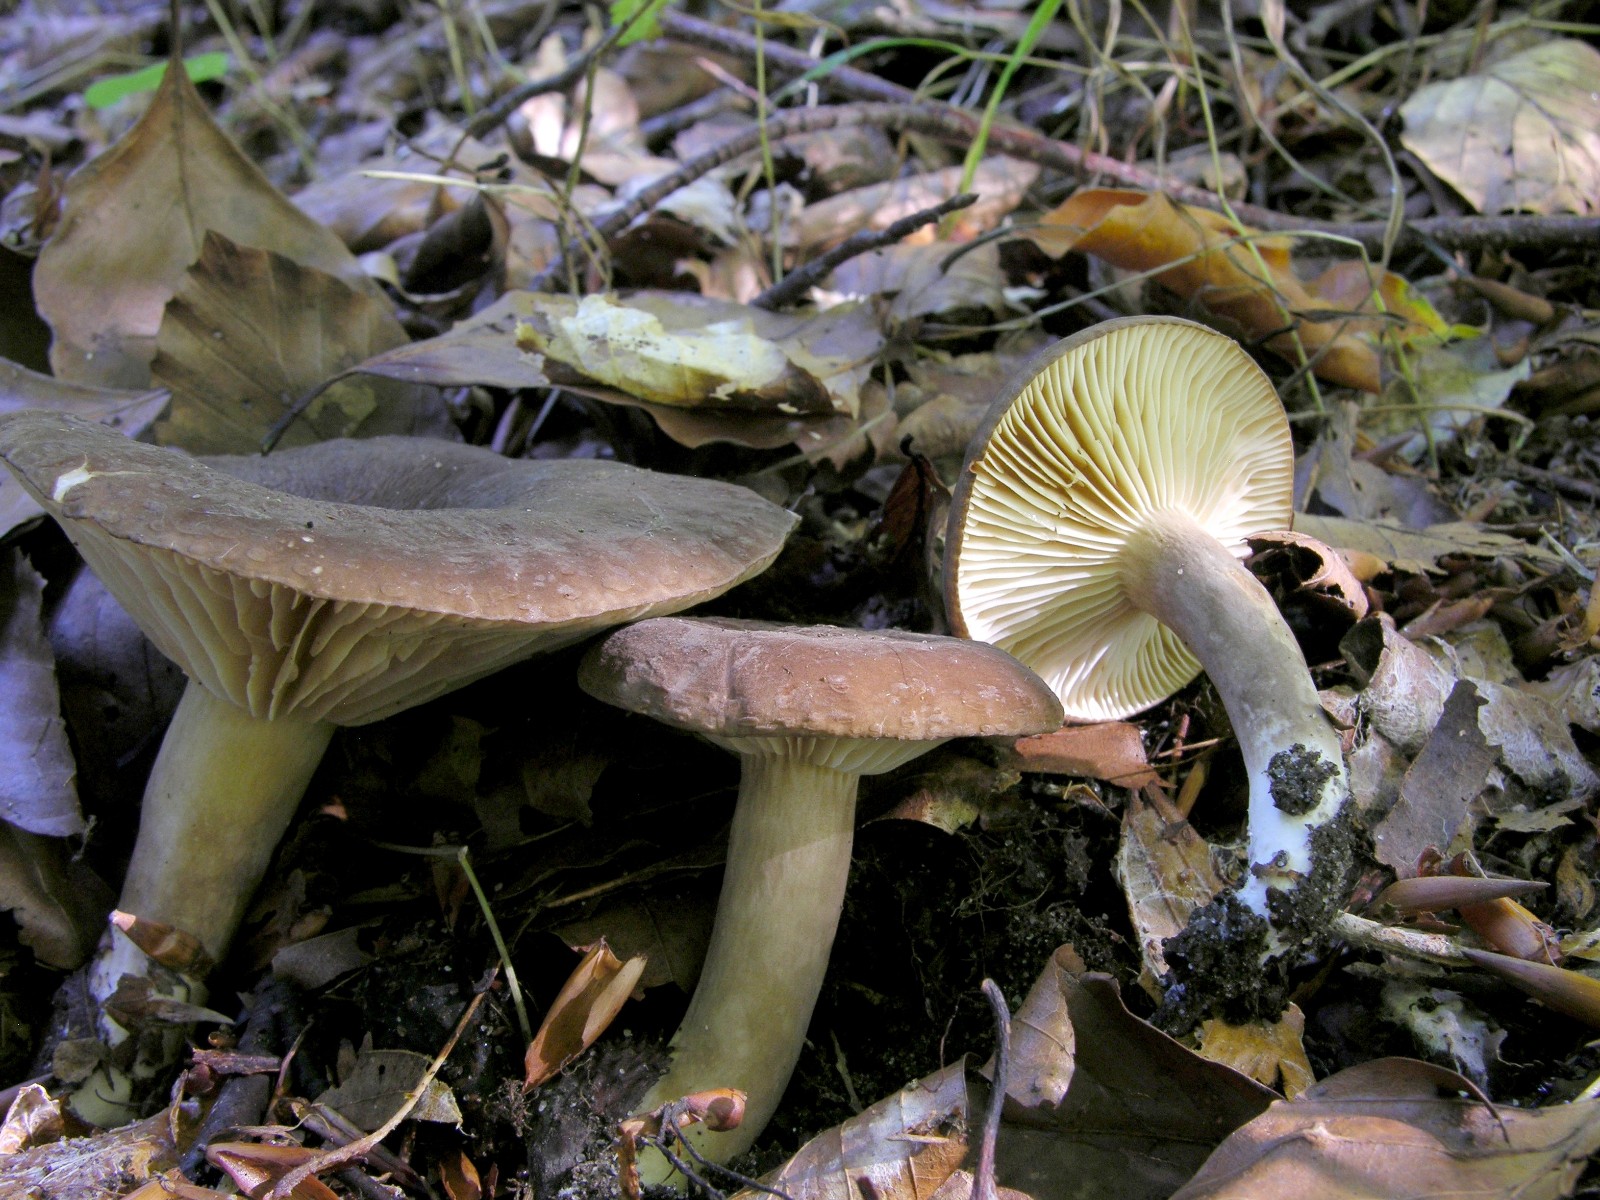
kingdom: Fungi
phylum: Basidiomycota
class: Agaricomycetes
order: Russulales
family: Russulaceae
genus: Lactarius
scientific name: Lactarius romagnesii
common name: fjernbladet mælkehat
